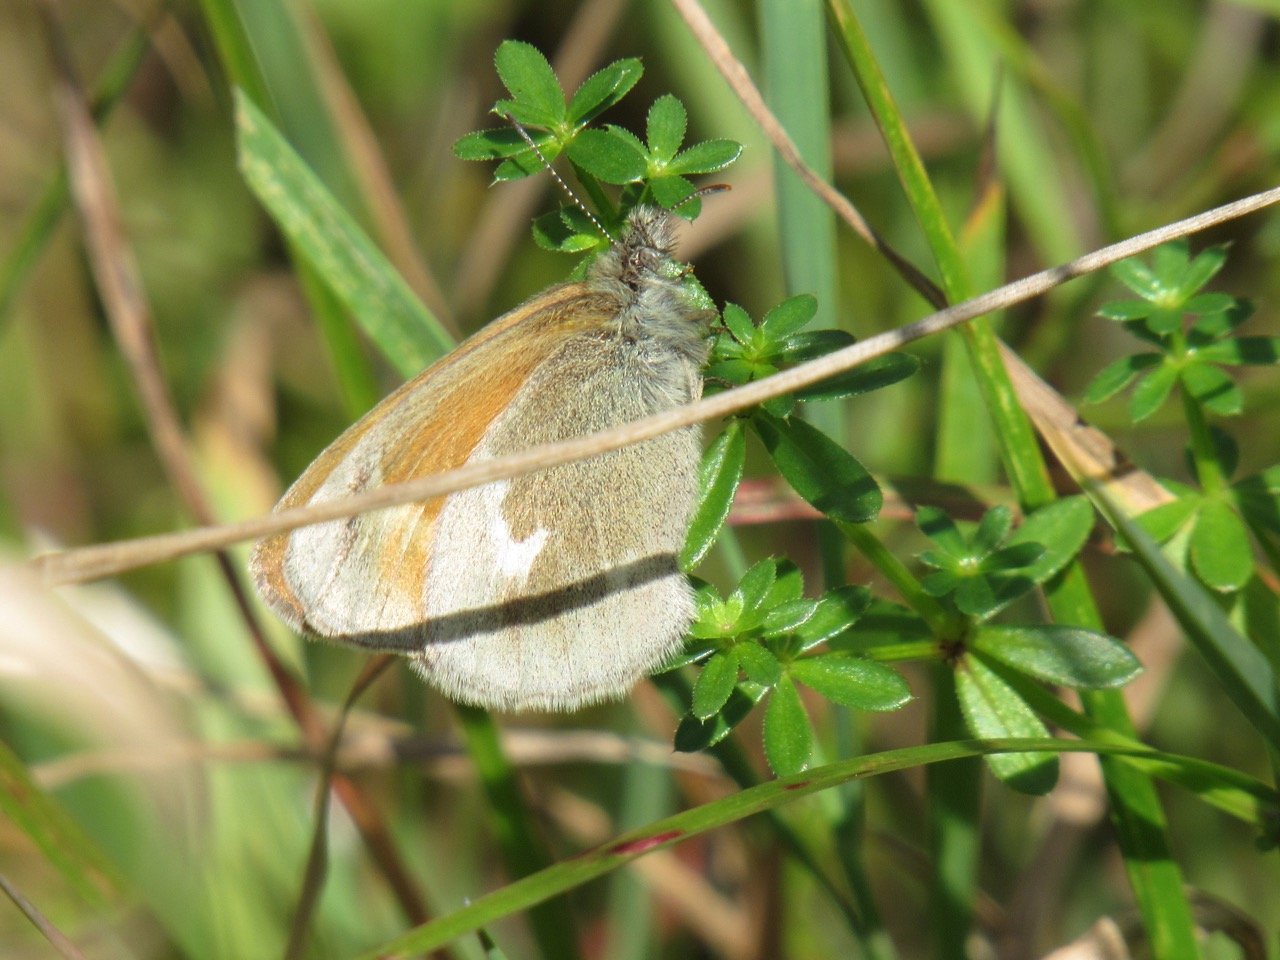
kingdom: Animalia
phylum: Arthropoda
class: Insecta
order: Lepidoptera
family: Nymphalidae
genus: Coenonympha
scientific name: Coenonympha tullia
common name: Large Heath
